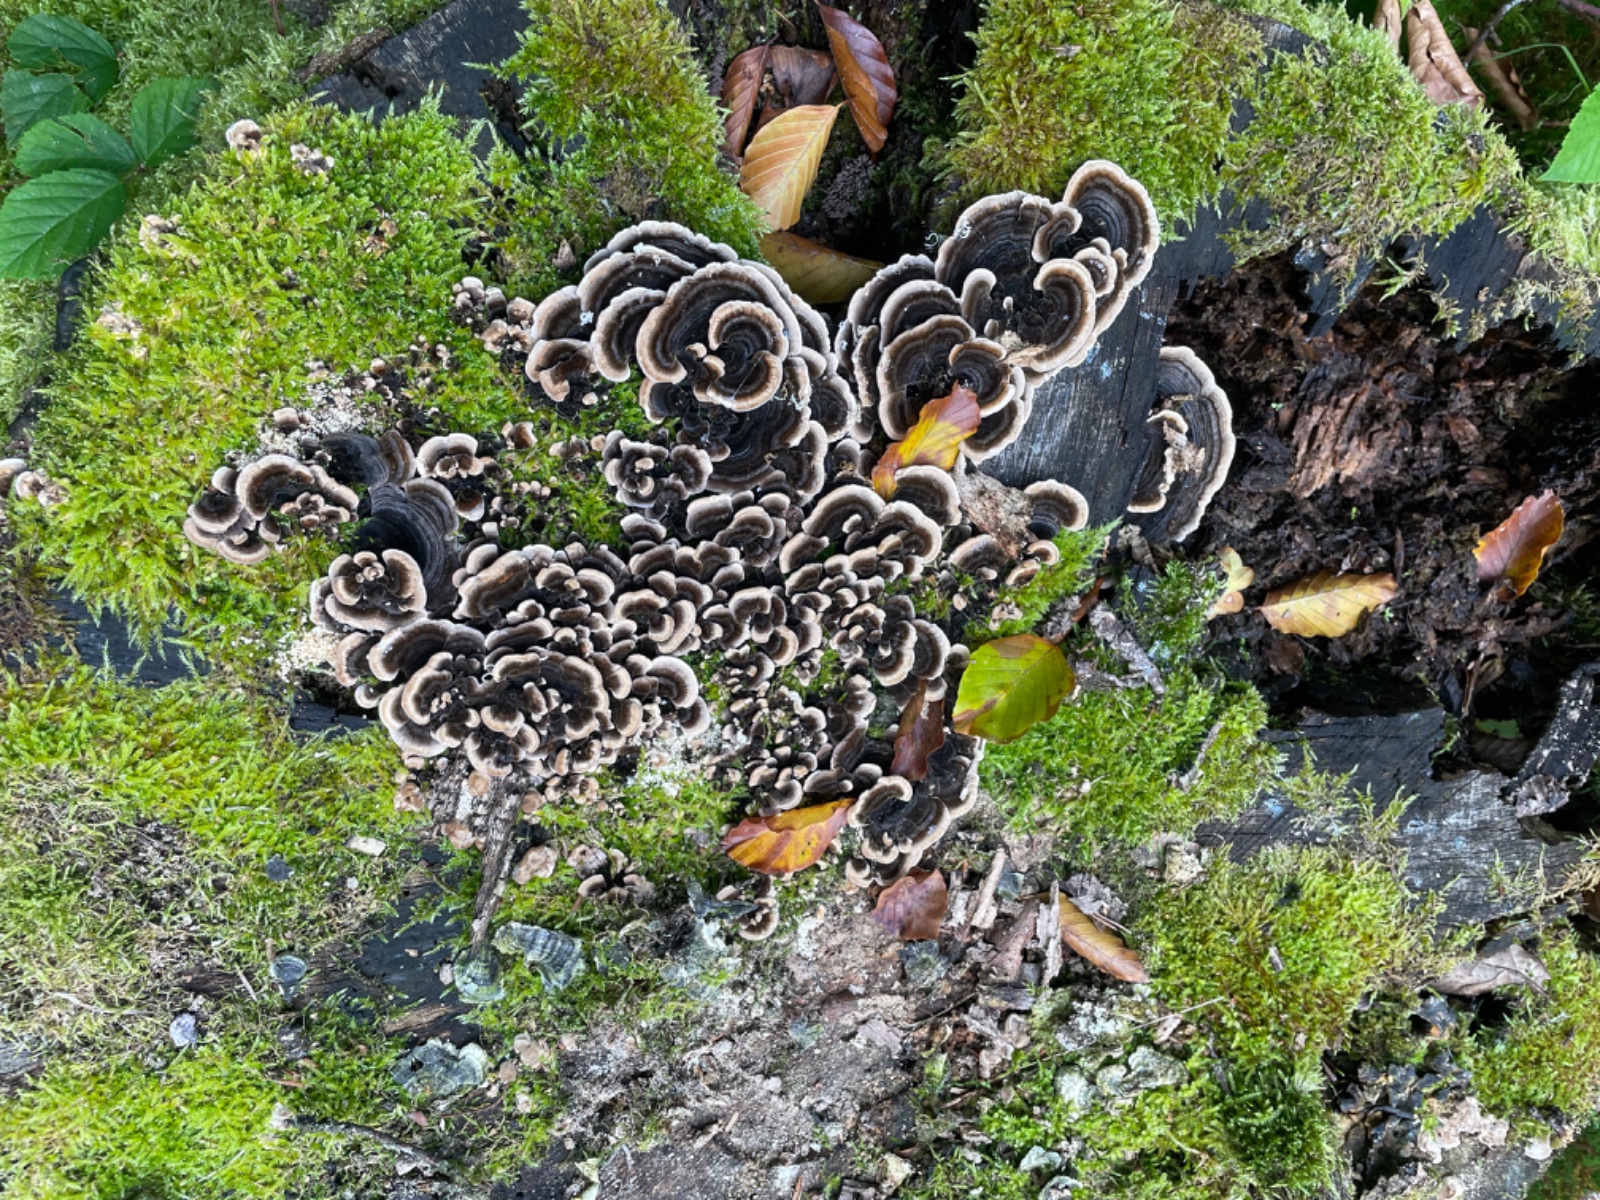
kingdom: Fungi
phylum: Basidiomycota
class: Agaricomycetes
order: Polyporales
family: Polyporaceae
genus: Trametes
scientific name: Trametes versicolor
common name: broget læderporesvamp
